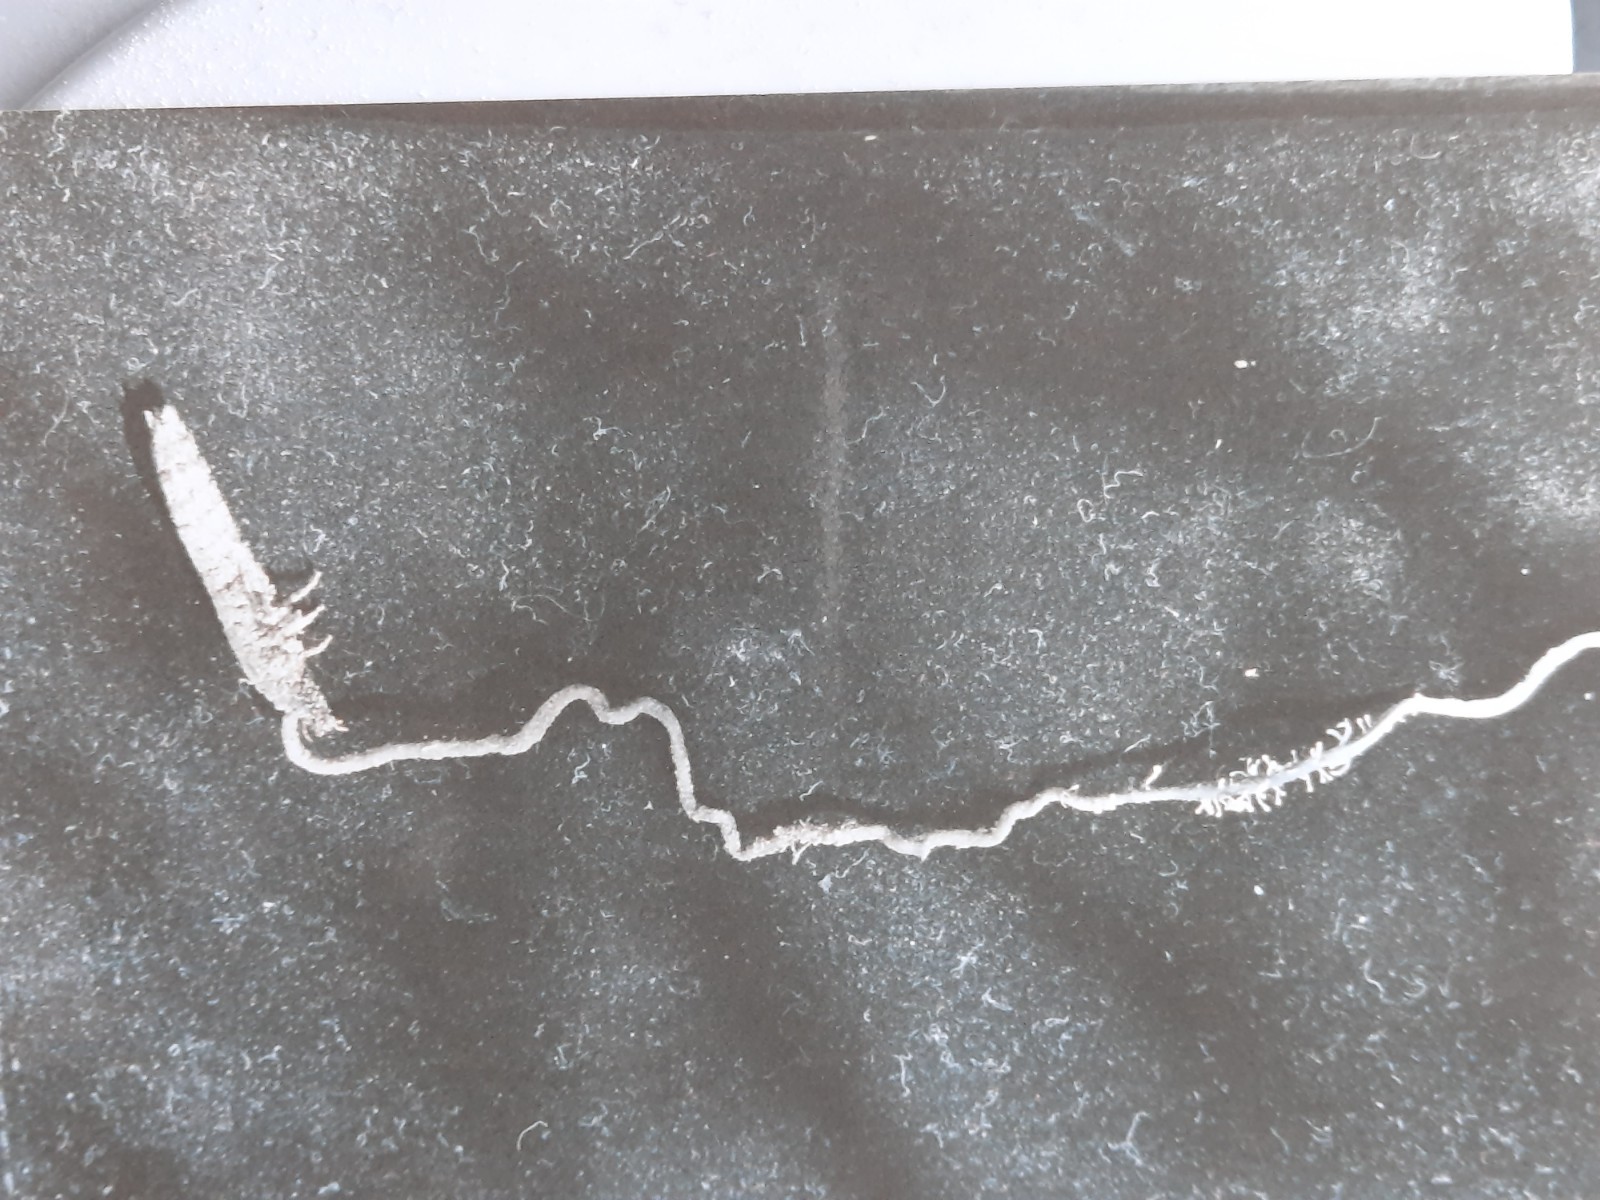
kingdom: Fungi
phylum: Ascomycota
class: Sordariomycetes
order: Hypocreales
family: Ophiocordycipitaceae
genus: Ophiocordyceps
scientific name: Ophiocordyceps entomorrhiza
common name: grå snyltekølle
